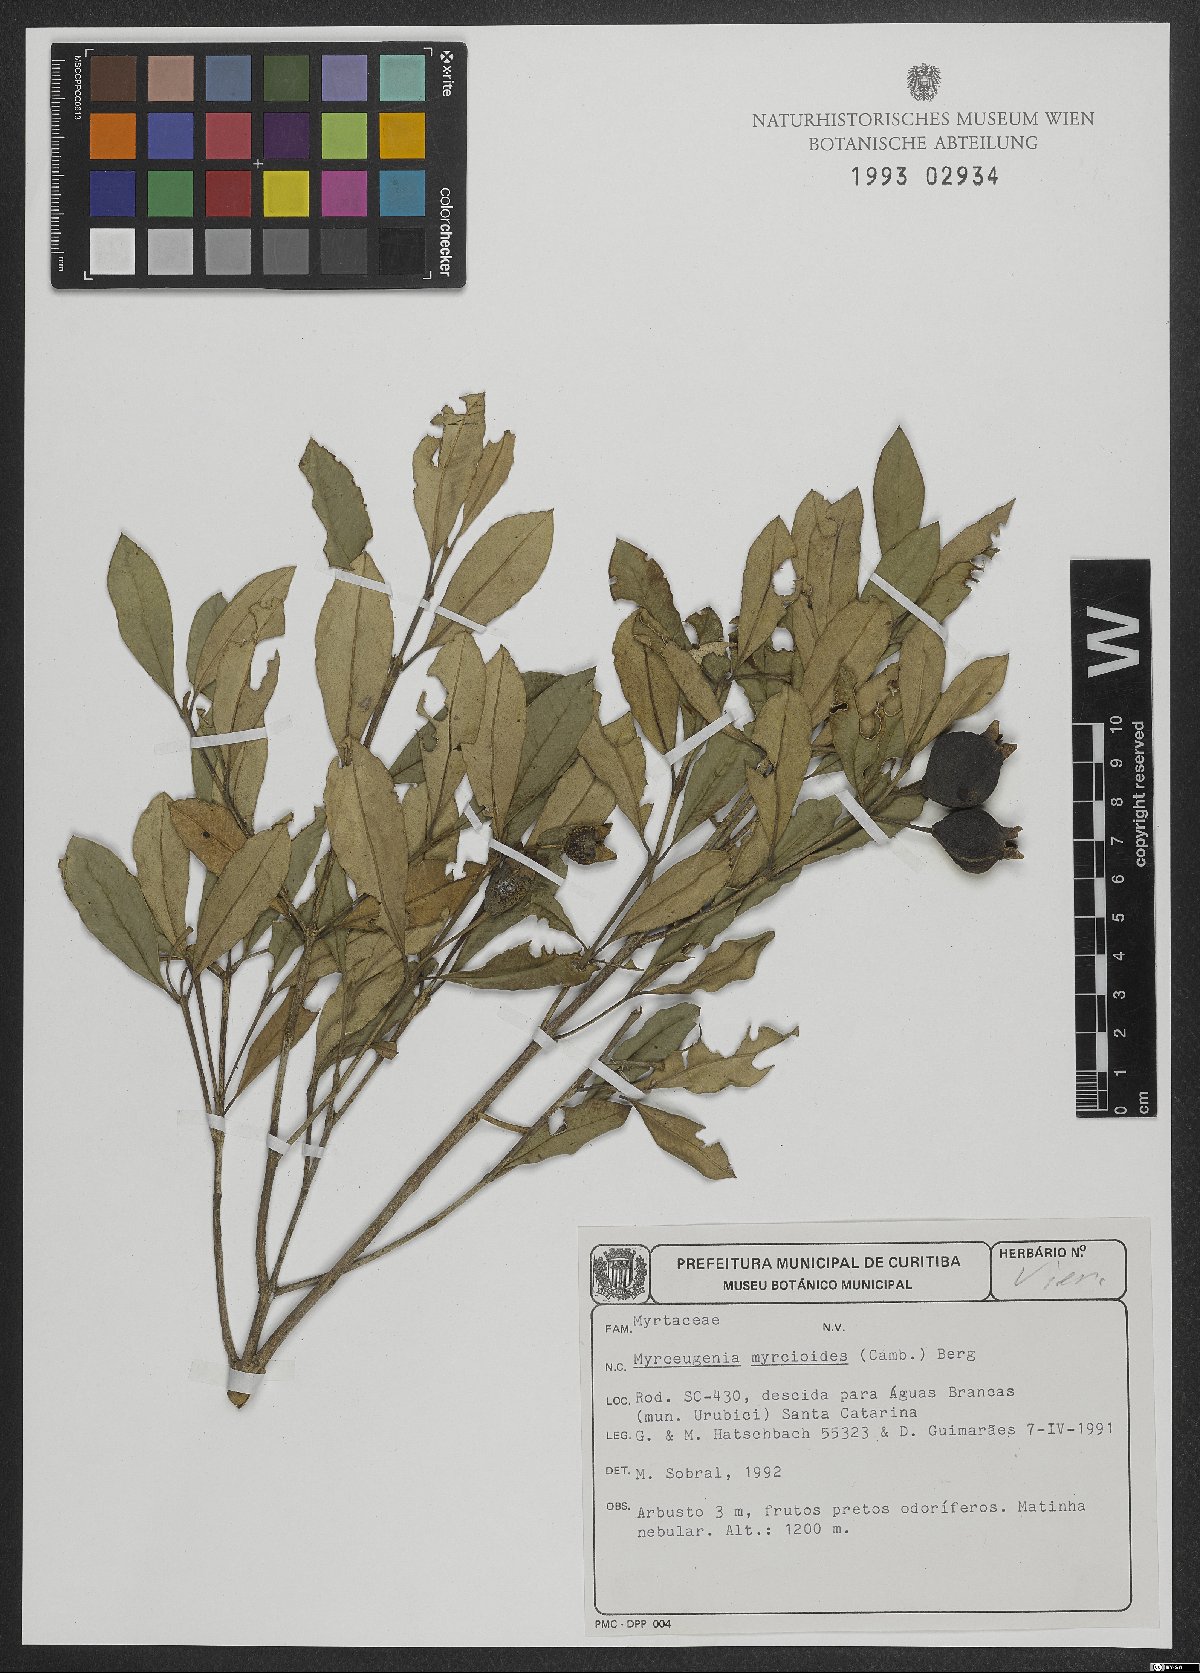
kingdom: Plantae
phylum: Tracheophyta
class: Magnoliopsida
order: Myrtales
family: Myrtaceae
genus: Myrceugenia
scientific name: Myrceugenia myrcioides
